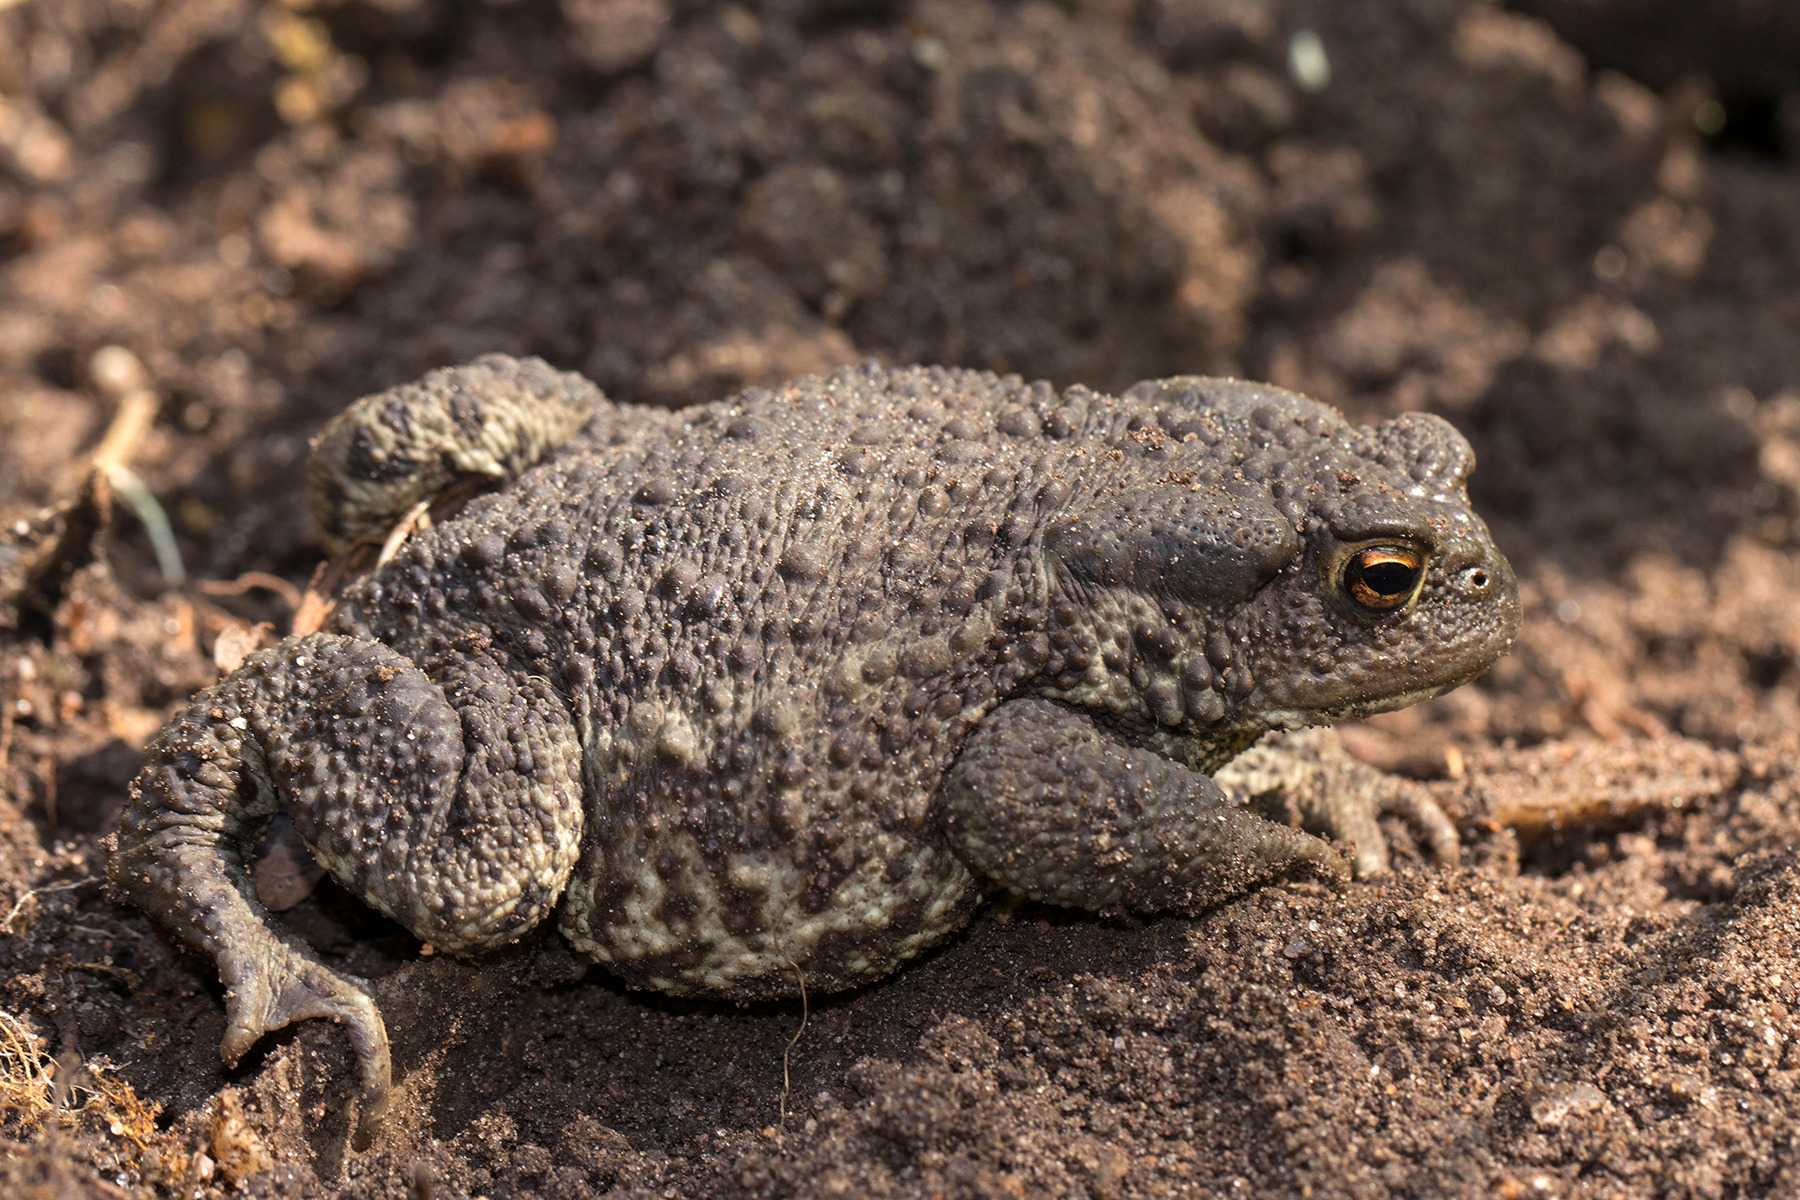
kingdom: Animalia
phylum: Chordata
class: Amphibia
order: Anura
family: Bufonidae
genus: Bufo
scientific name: Bufo bufo
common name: Skrubtudse
